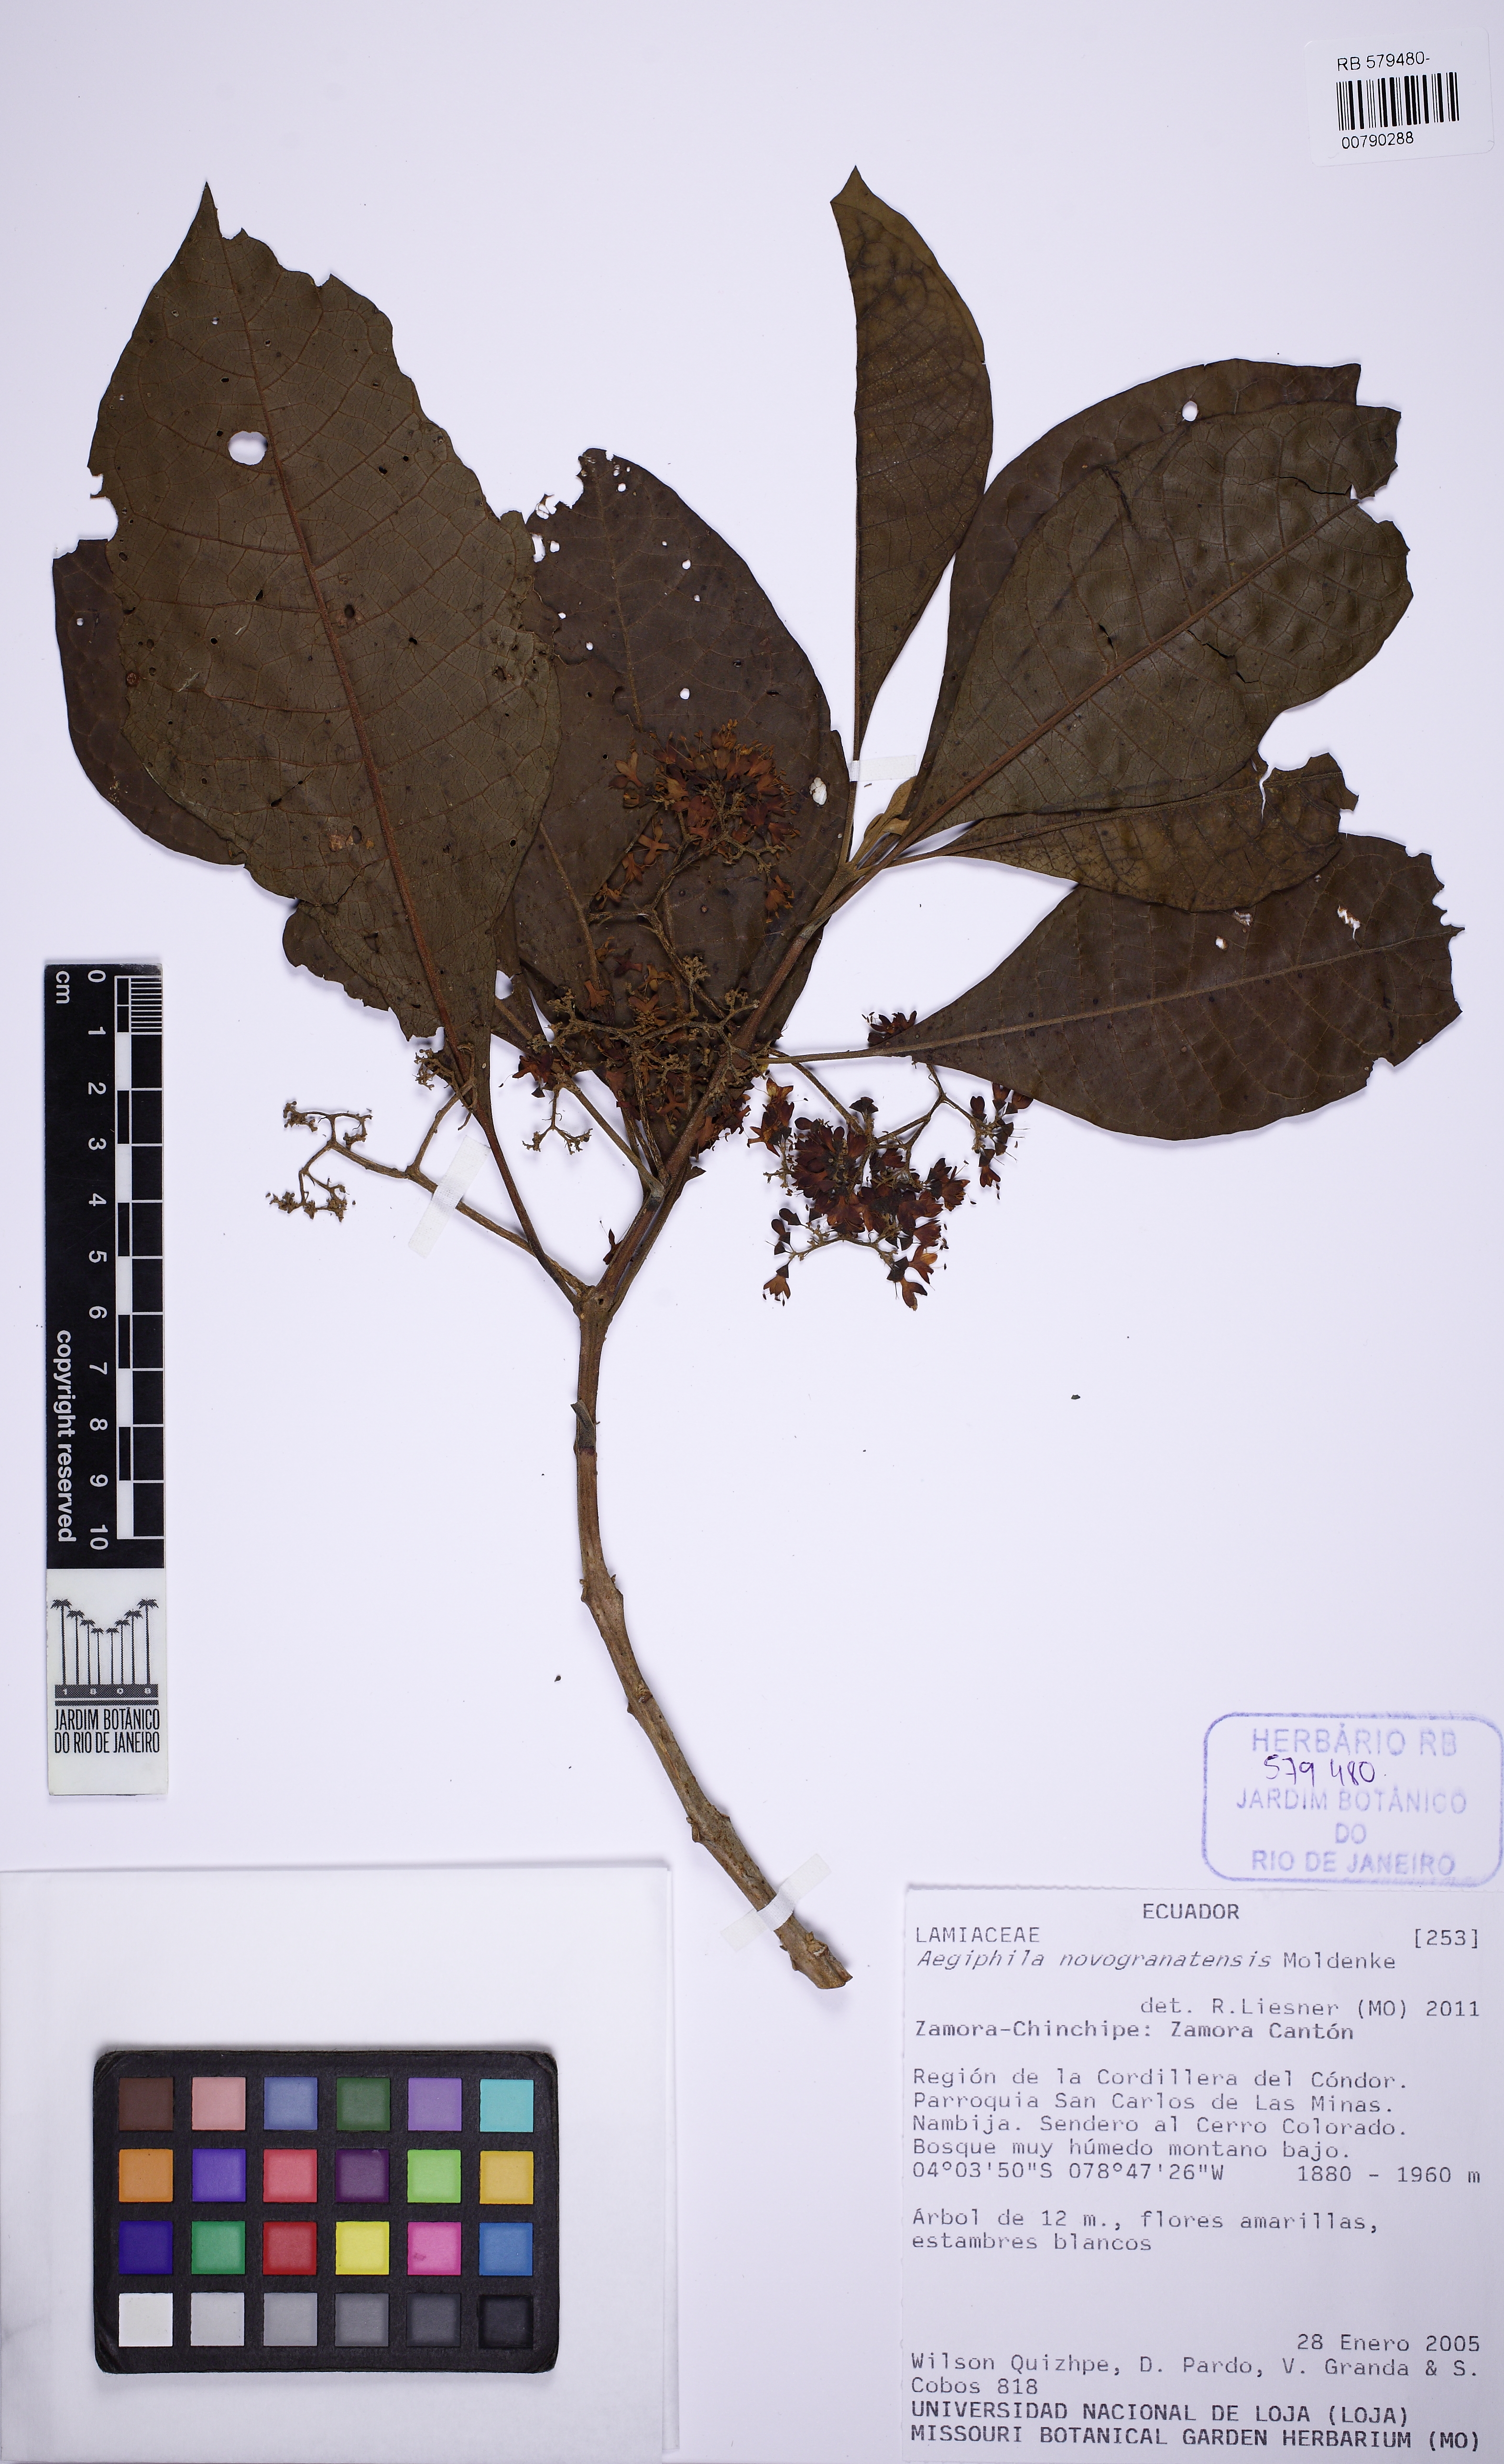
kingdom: Plantae
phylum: Tracheophyta
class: Magnoliopsida
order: Lamiales
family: Lamiaceae
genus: Aegiphila
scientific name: Aegiphila novogranatensis
